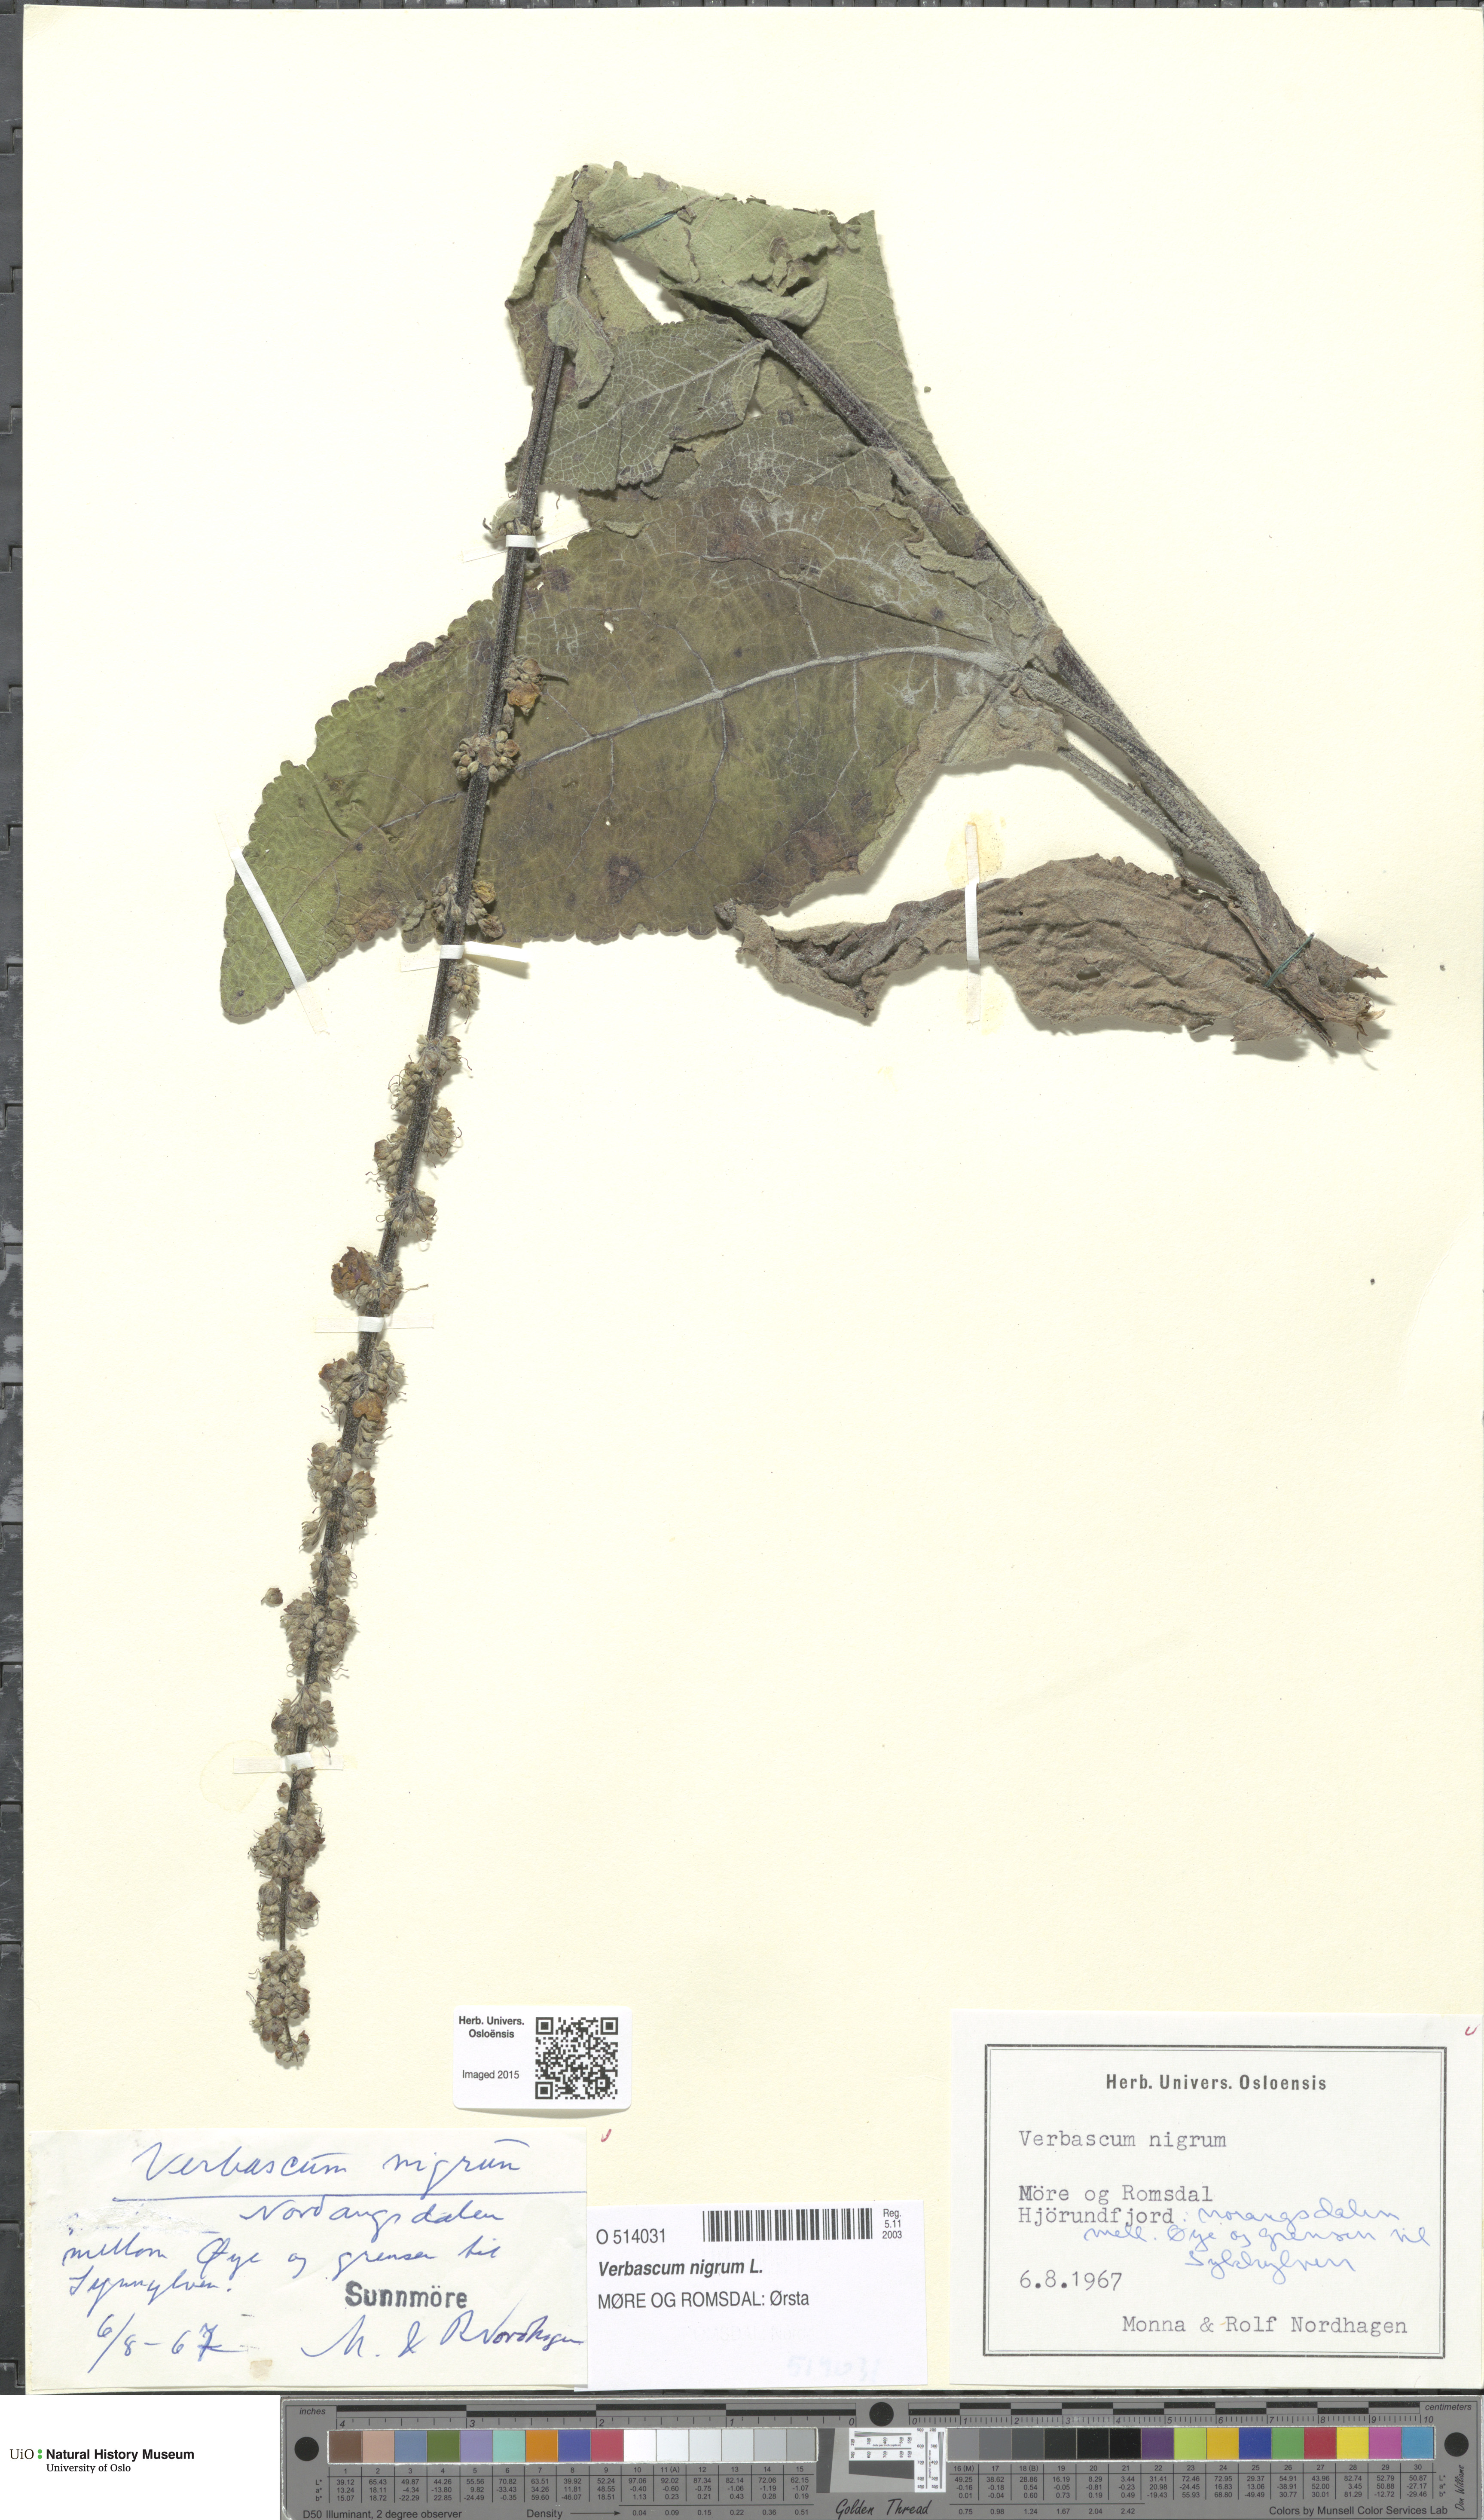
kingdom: Plantae
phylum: Tracheophyta
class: Magnoliopsida
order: Lamiales
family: Scrophulariaceae
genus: Verbascum
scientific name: Verbascum nigrum
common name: Dark mullein
